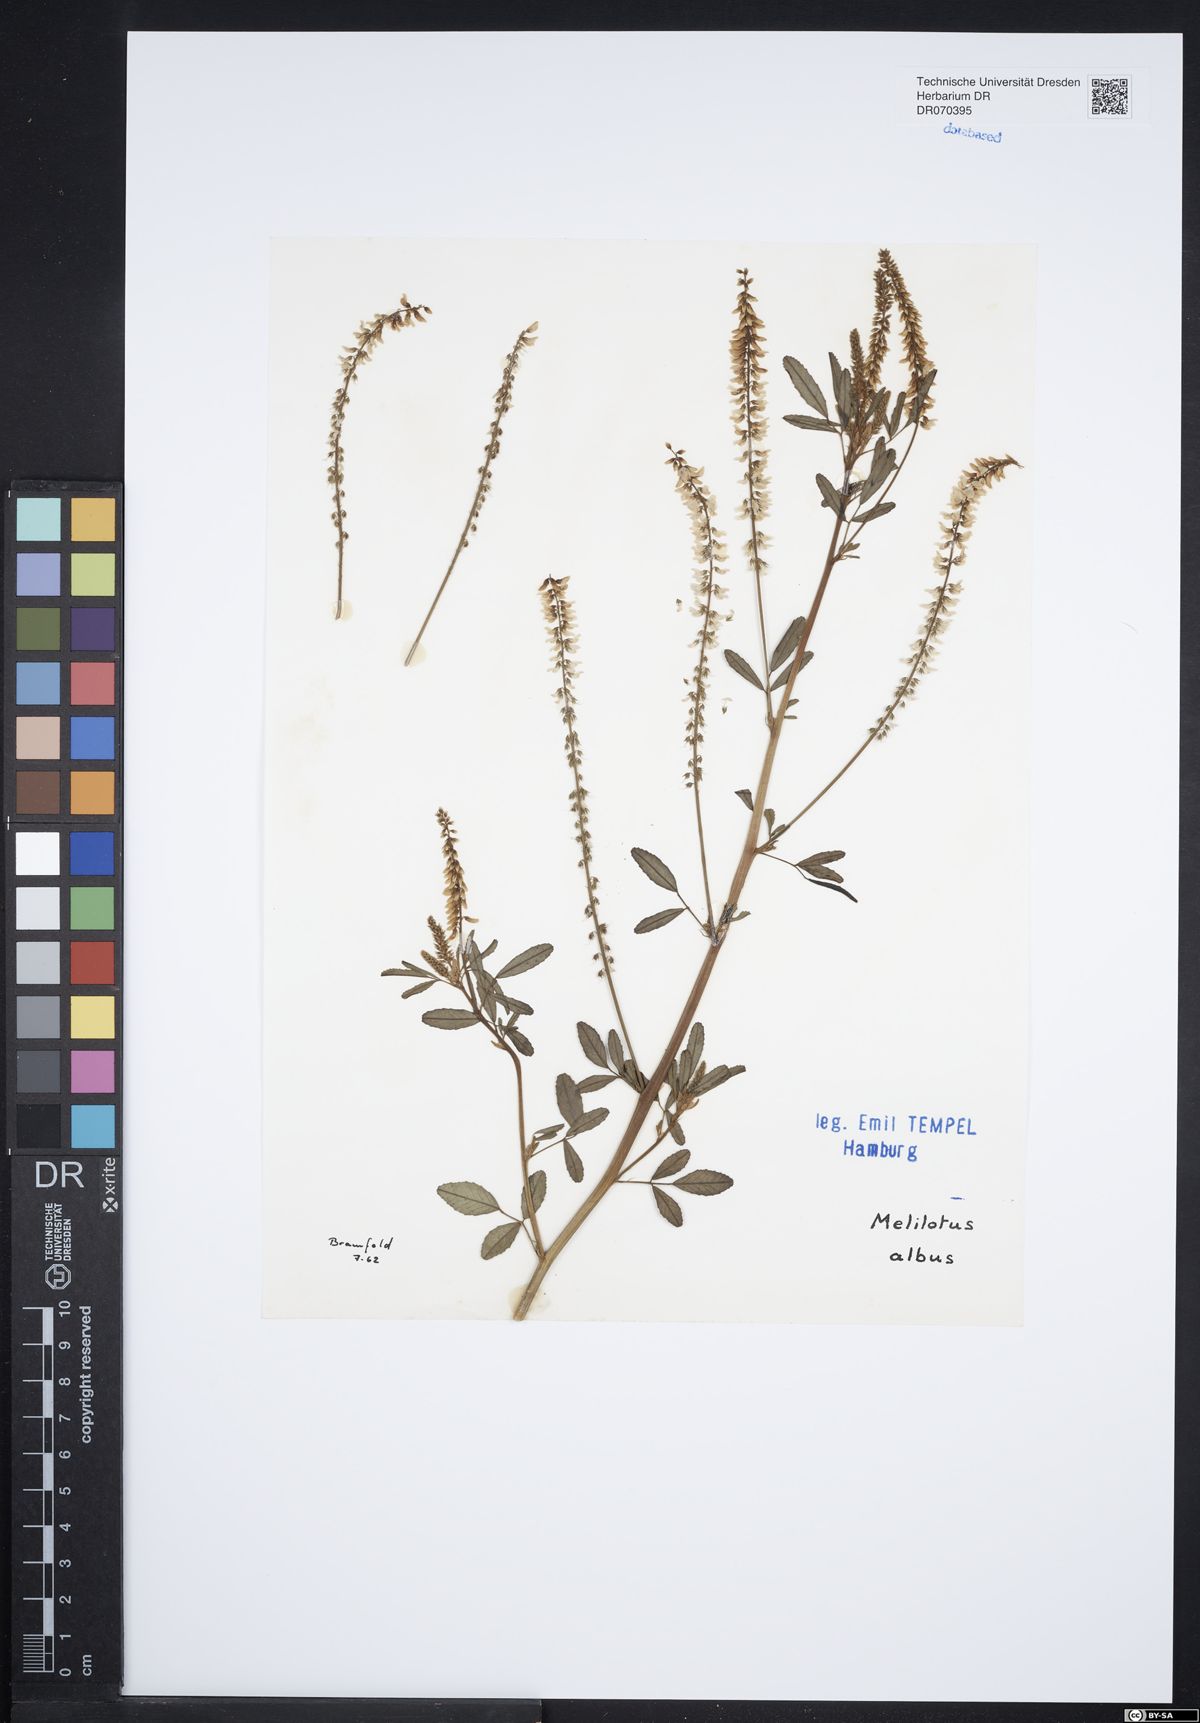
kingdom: Plantae
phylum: Tracheophyta
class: Magnoliopsida
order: Fabales
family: Fabaceae
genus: Melilotus
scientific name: Melilotus albus
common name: White melilot
